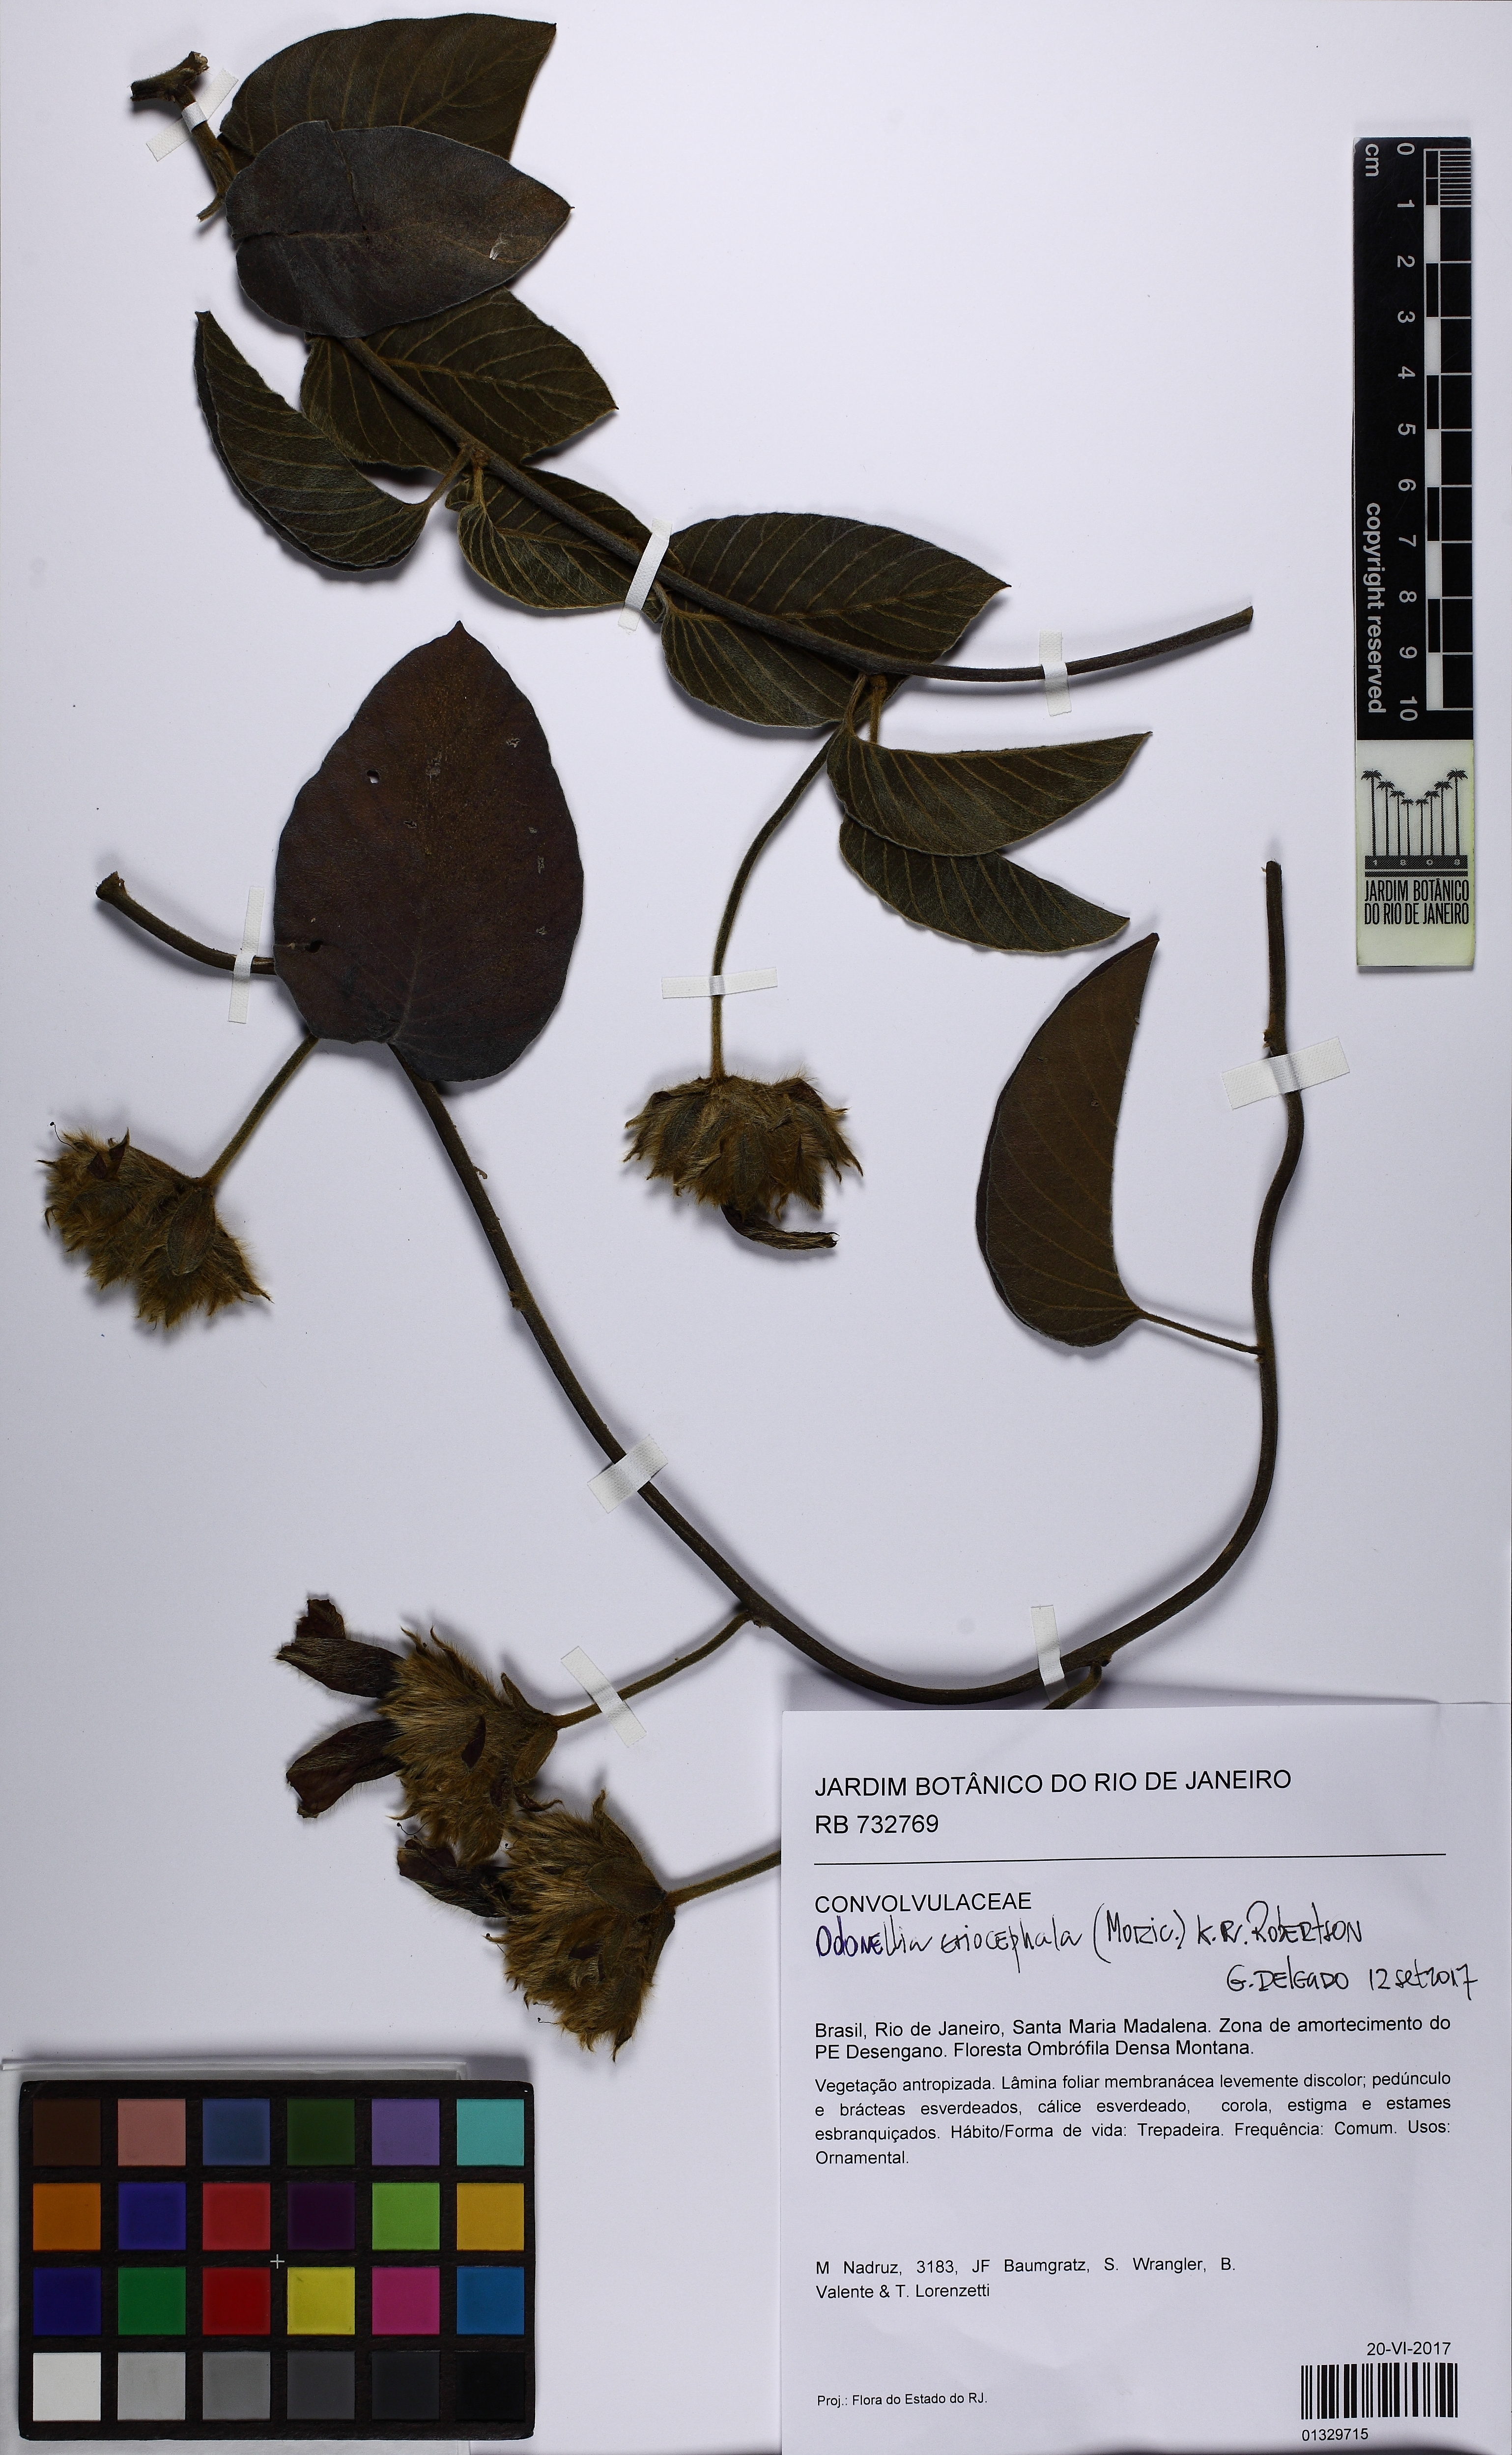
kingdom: Plantae
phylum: Tracheophyta
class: Magnoliopsida
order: Solanales
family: Convolvulaceae
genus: Odonellia
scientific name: Odonellia eriocephala
